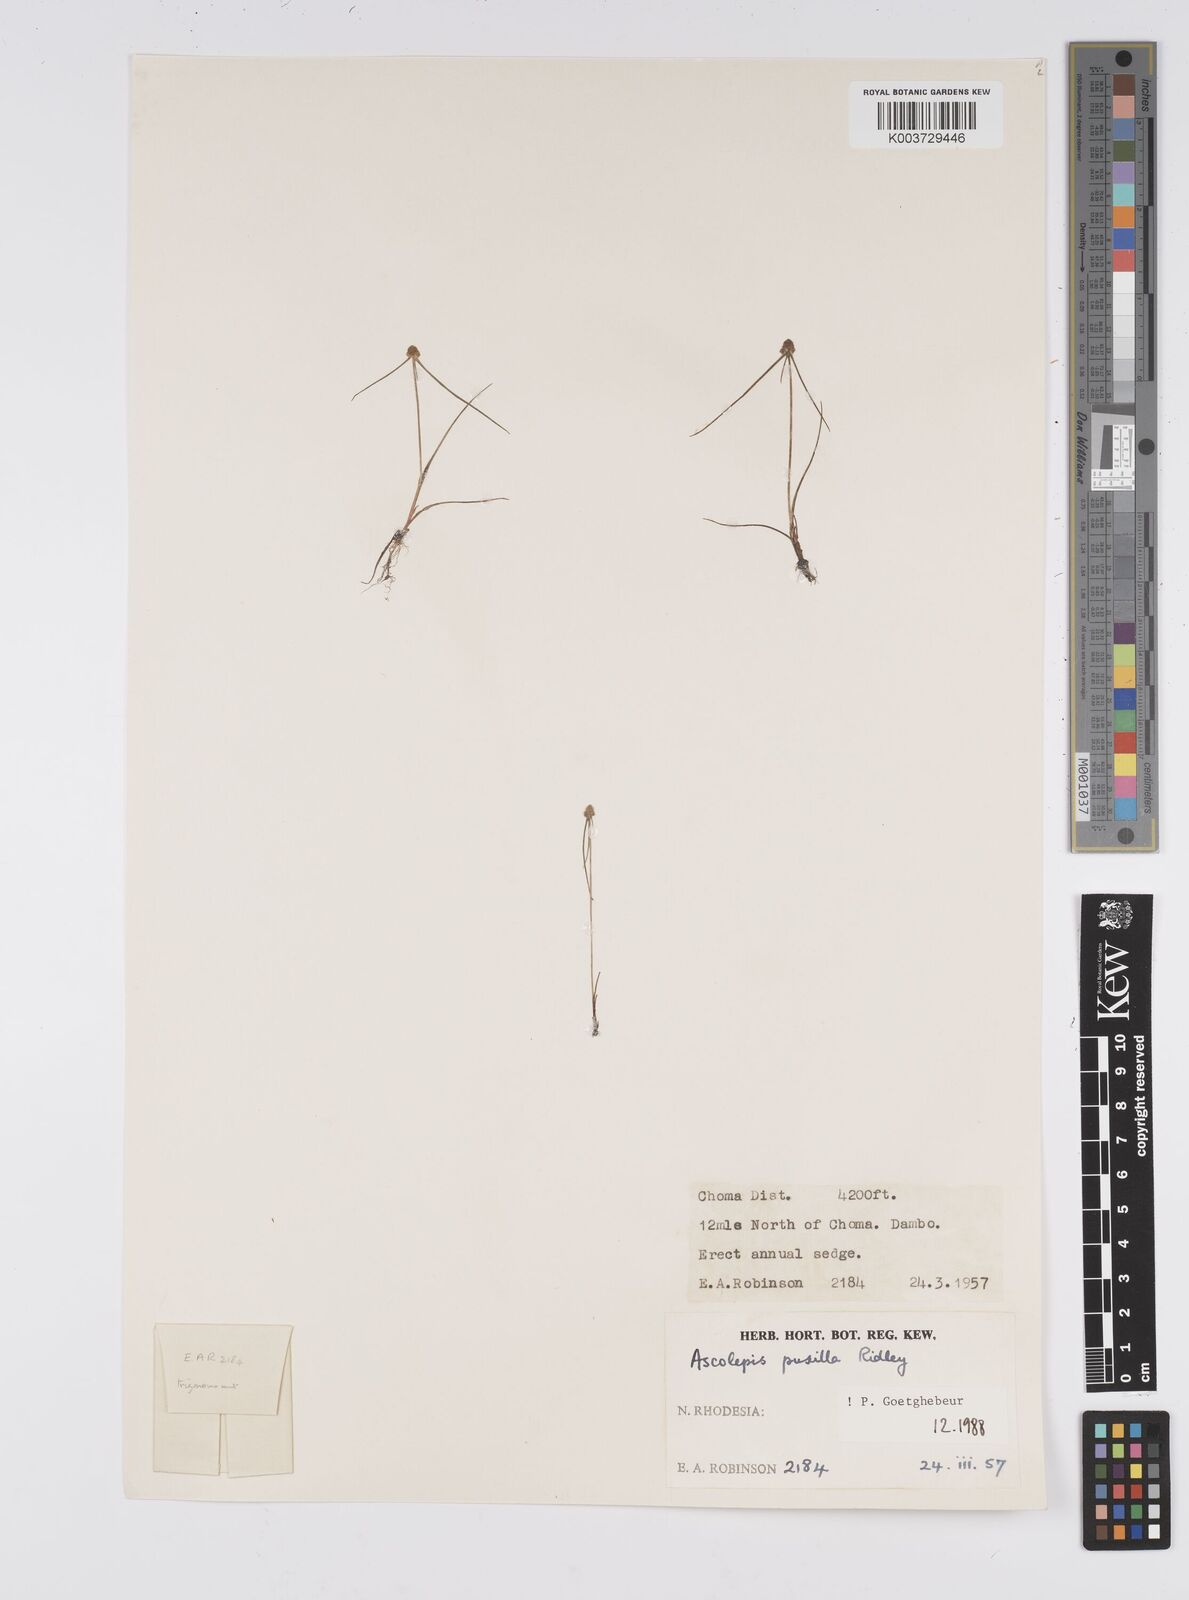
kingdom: Plantae
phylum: Tracheophyta
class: Liliopsida
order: Poales
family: Cyperaceae
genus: Cyperus
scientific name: Cyperus
